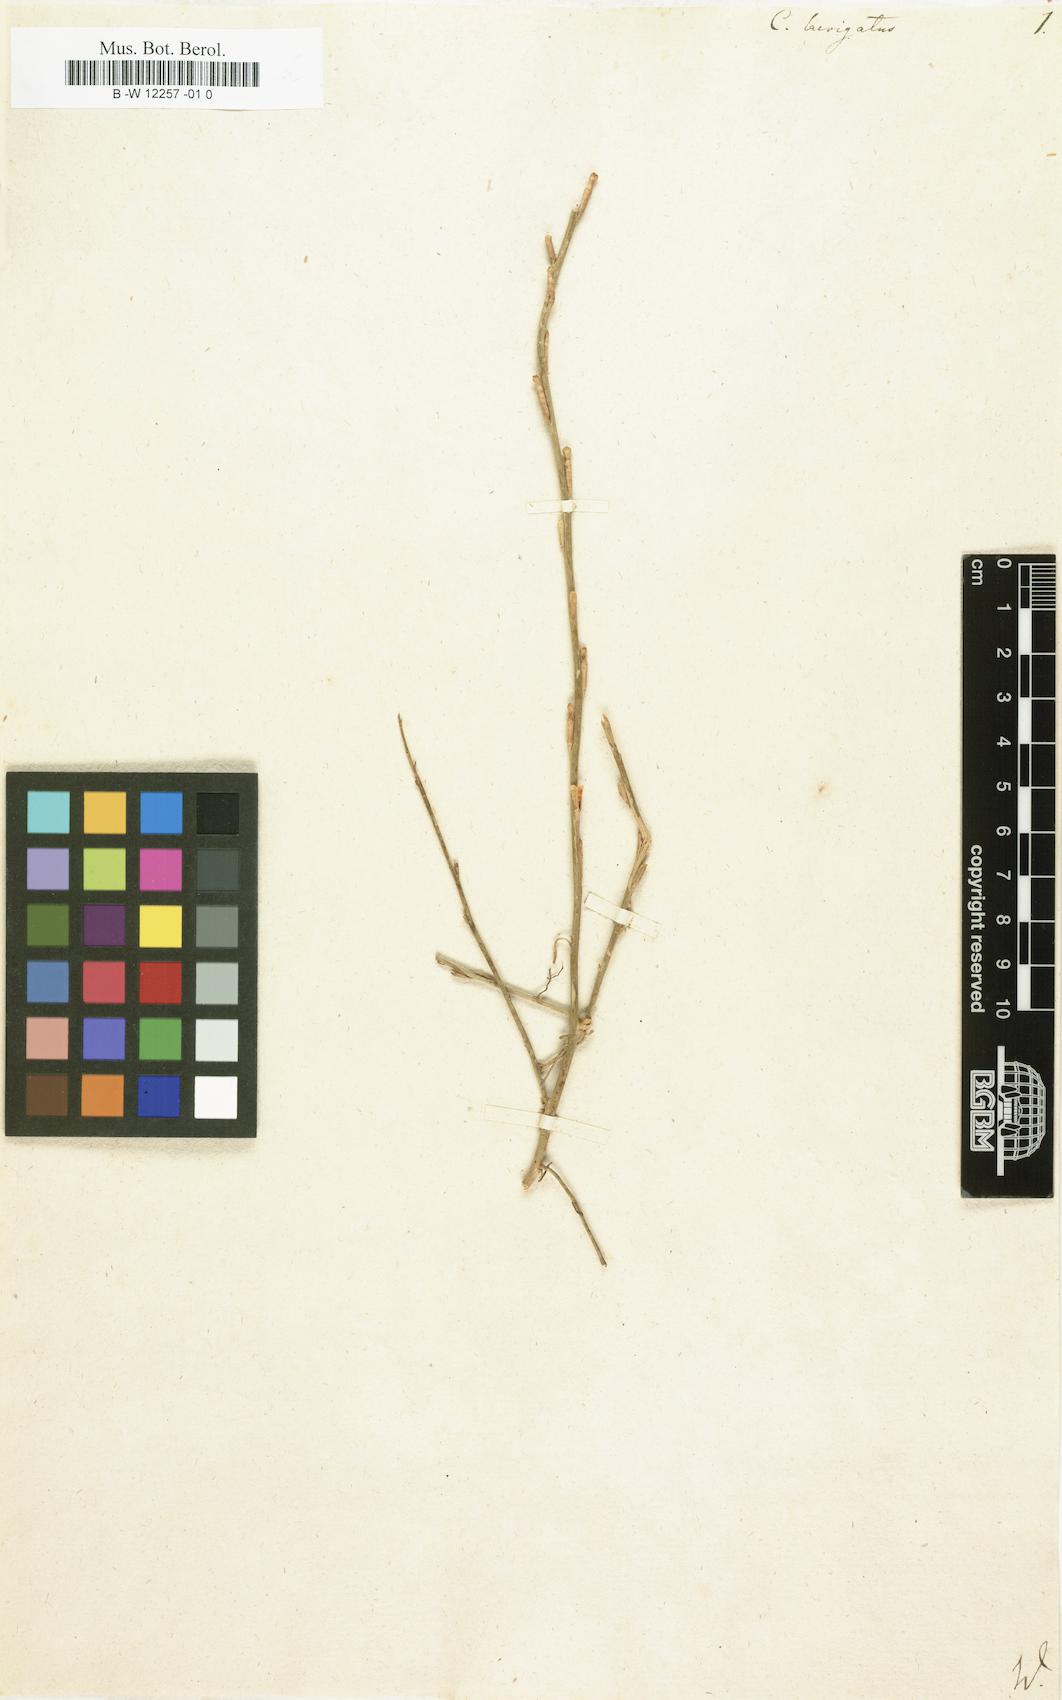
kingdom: Plantae
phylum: Tracheophyta
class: Magnoliopsida
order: Brassicales
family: Brassicaceae
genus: Erucaria
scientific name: Erucaria hispanica
